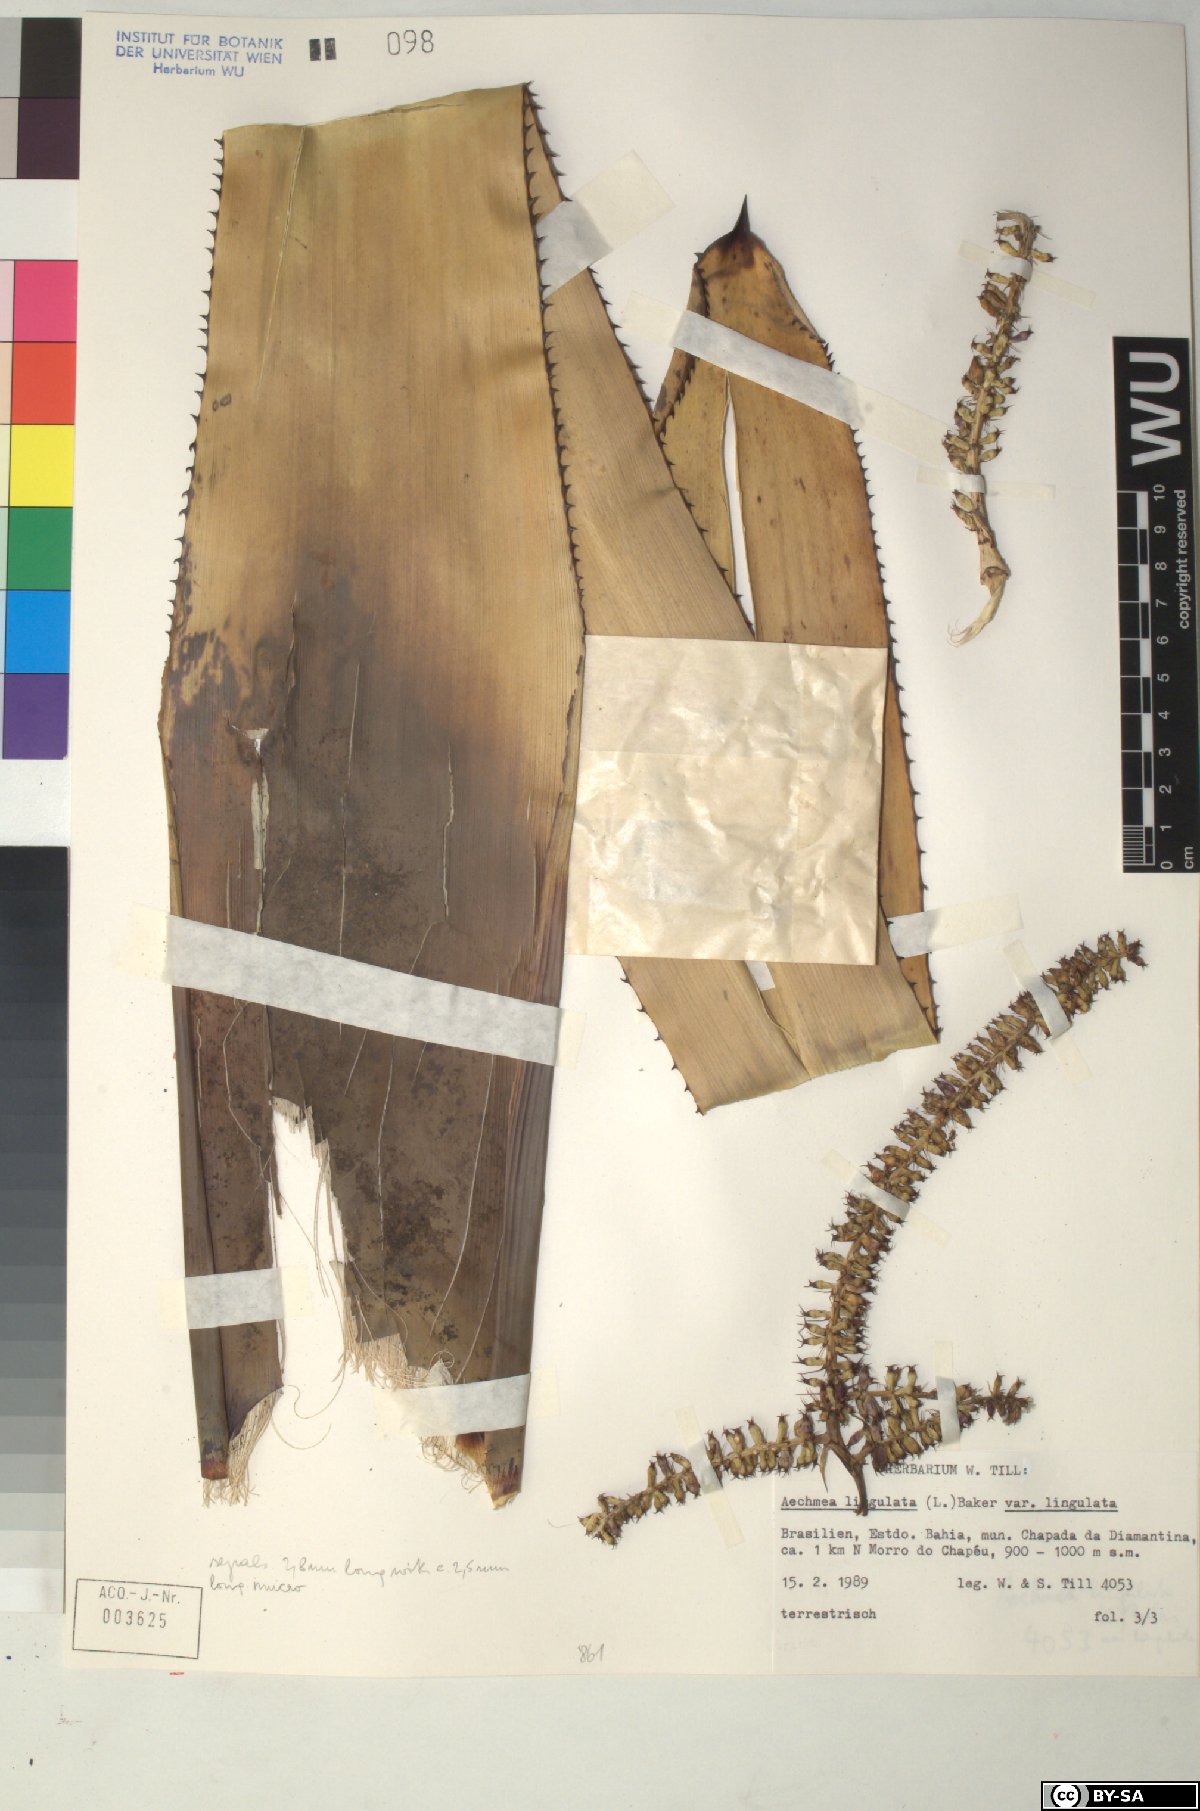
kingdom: Plantae
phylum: Tracheophyta
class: Liliopsida
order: Poales
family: Bromeliaceae
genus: Aechmea
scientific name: Aechmea
